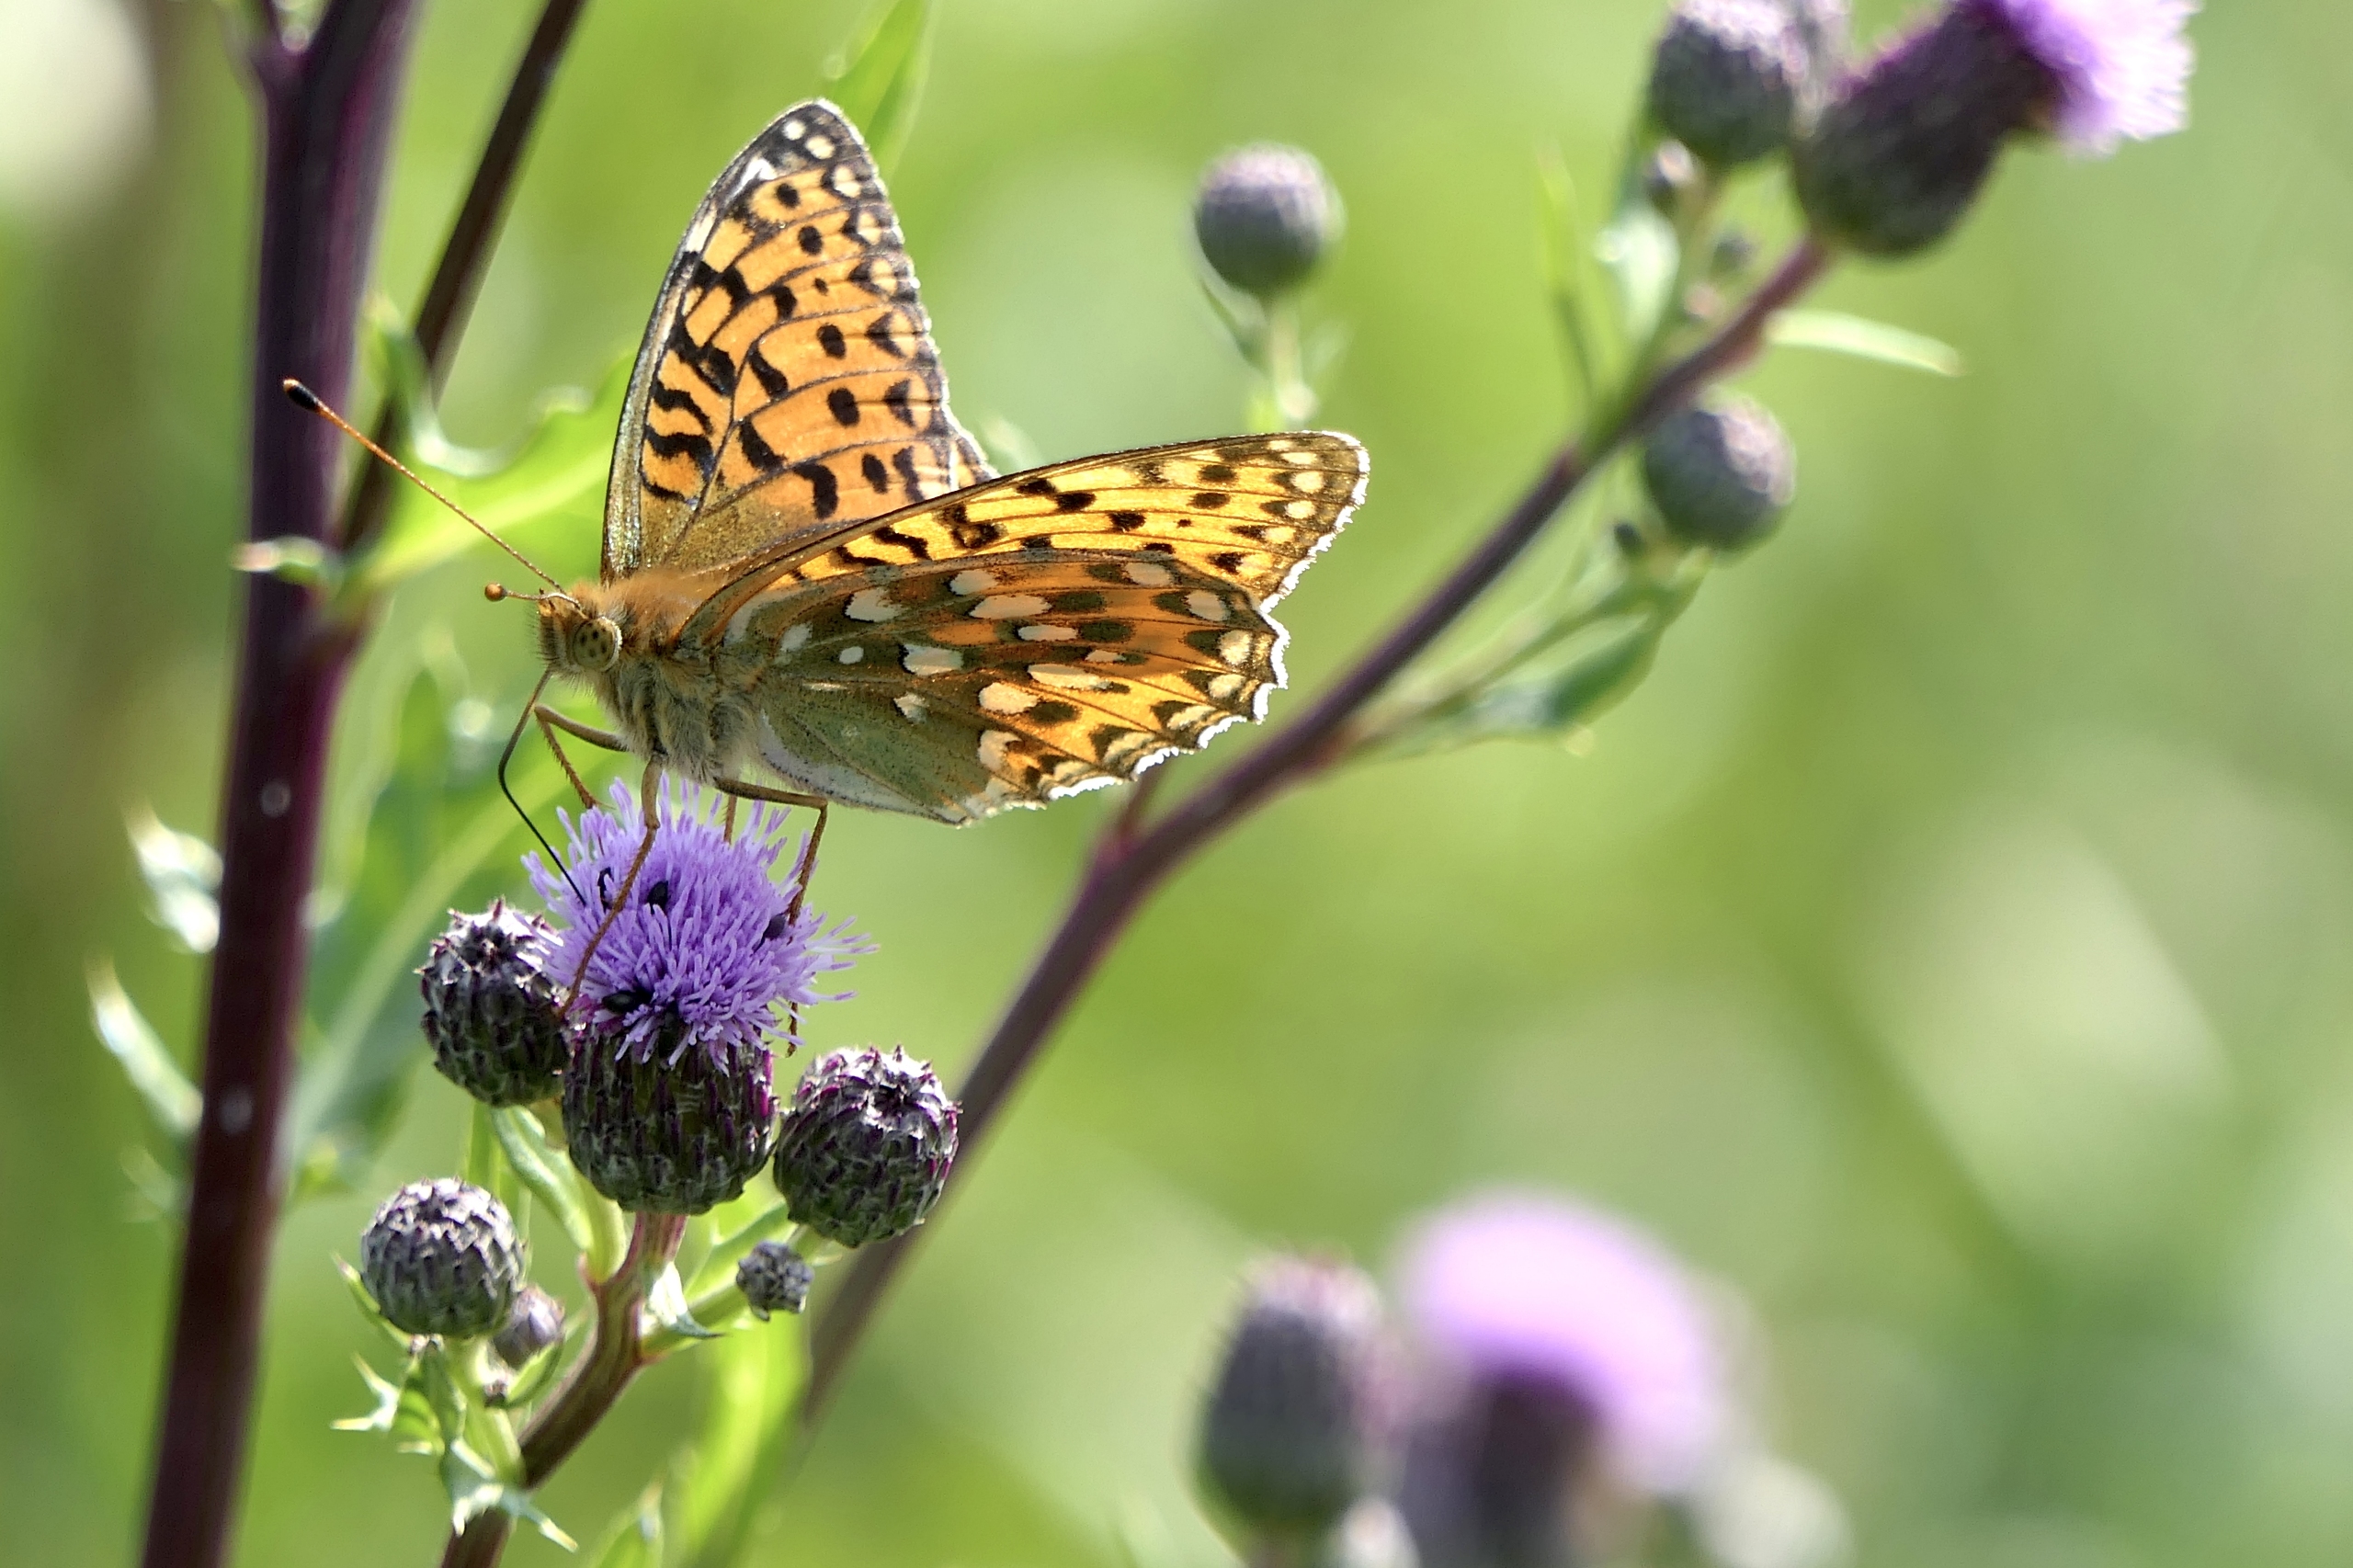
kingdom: Animalia
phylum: Arthropoda
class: Insecta
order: Lepidoptera
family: Nymphalidae
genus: Speyeria
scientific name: Speyeria aglaja
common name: Markperlemorsommerfugl
